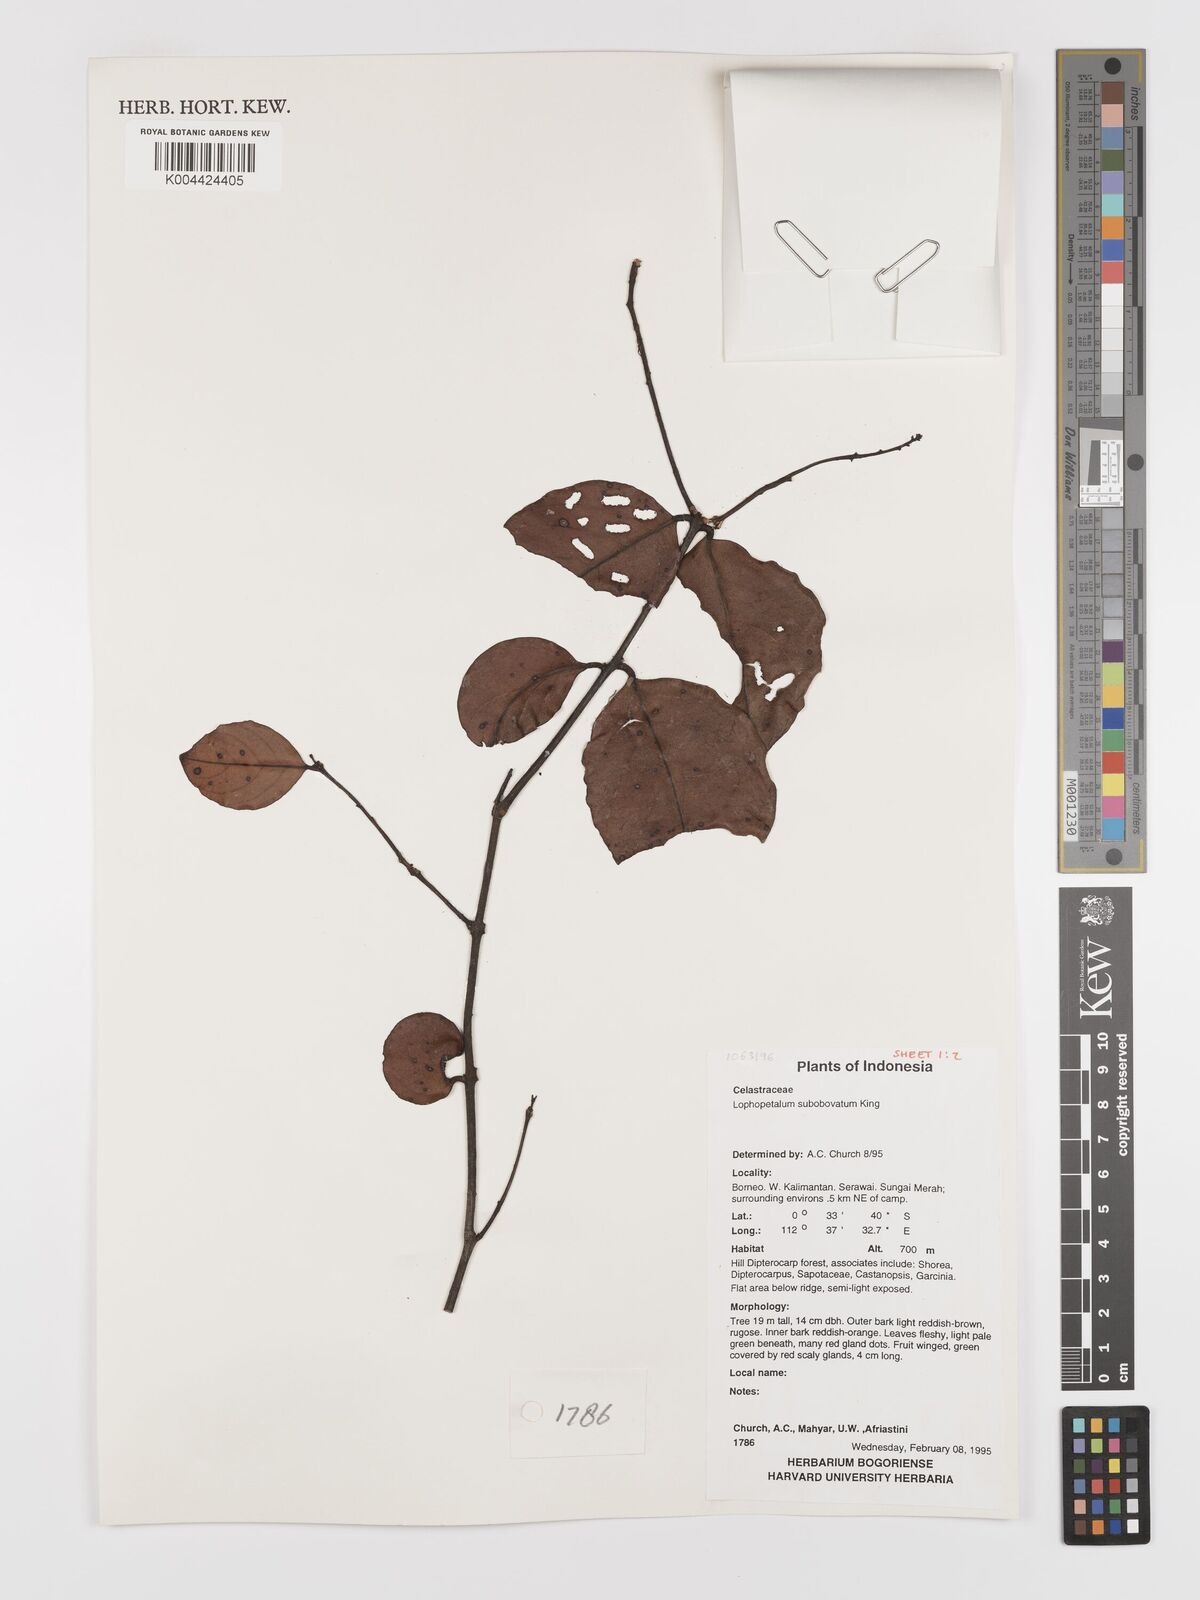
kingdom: Plantae
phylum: Tracheophyta
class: Magnoliopsida
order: Celastrales
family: Celastraceae
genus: Lophopetalum
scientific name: Lophopetalum
